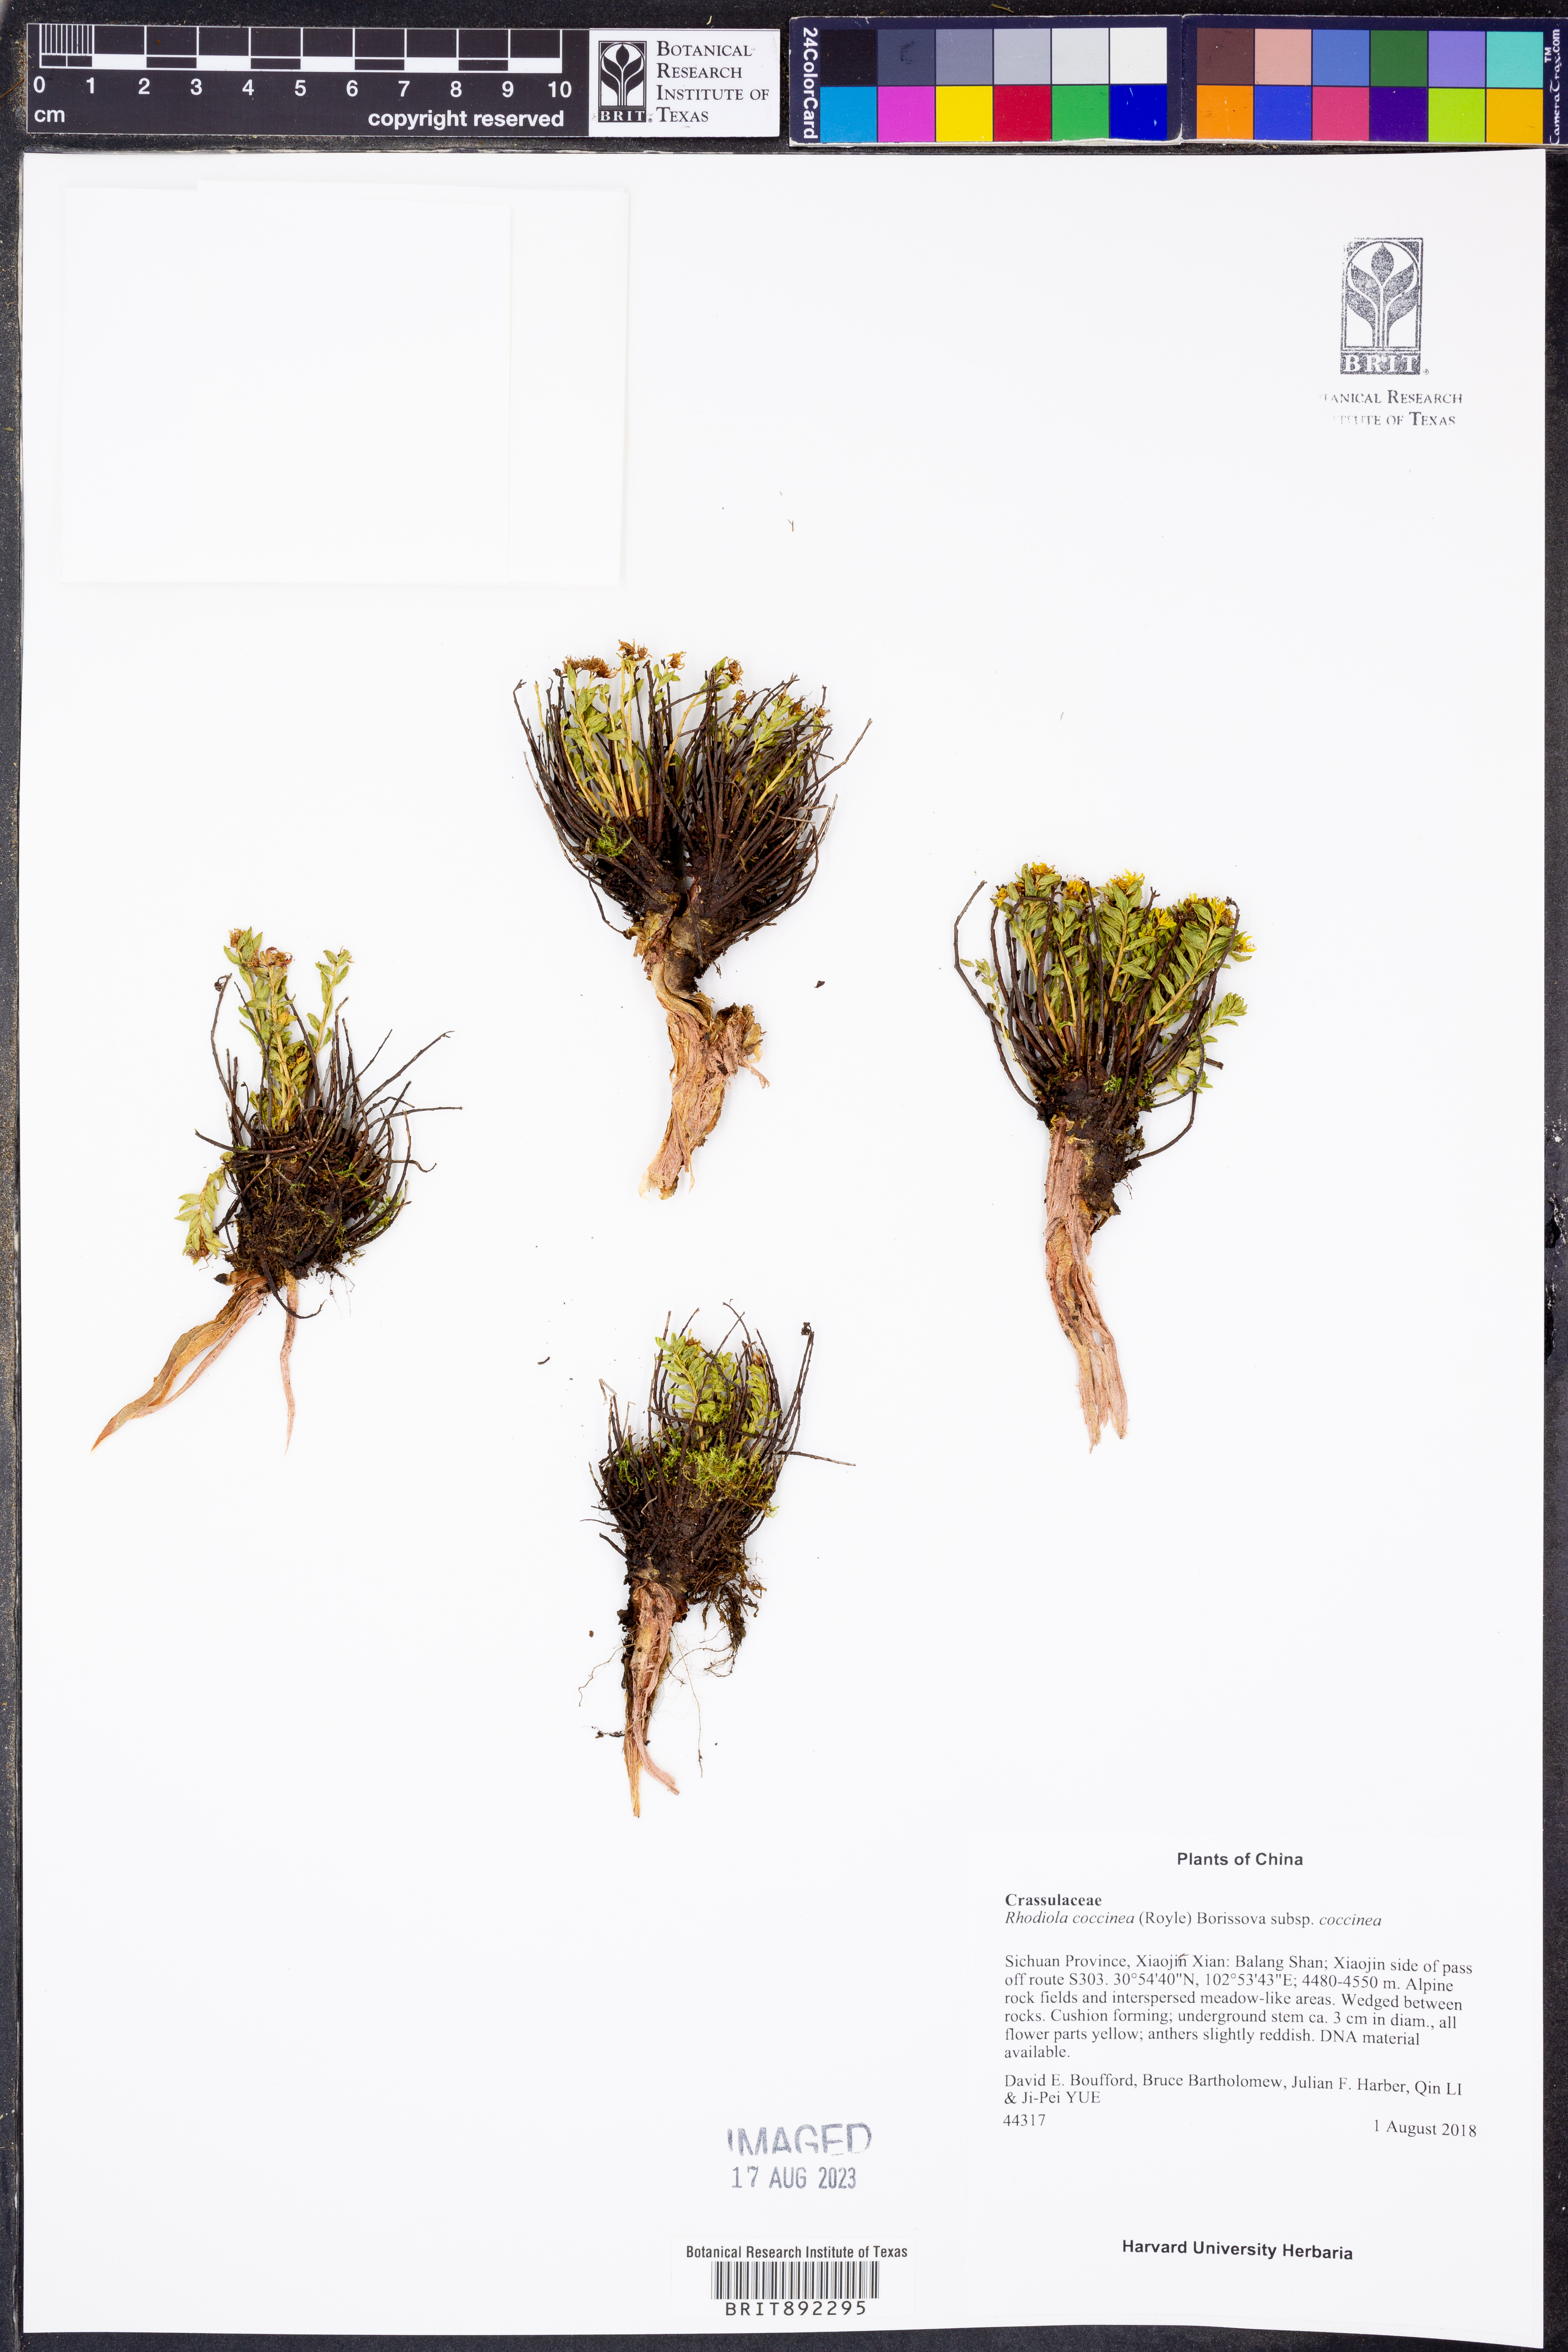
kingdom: Plantae
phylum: Tracheophyta
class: Magnoliopsida
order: Saxifragales
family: Crassulaceae
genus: Rhodiola
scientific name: Rhodiola coccinea
